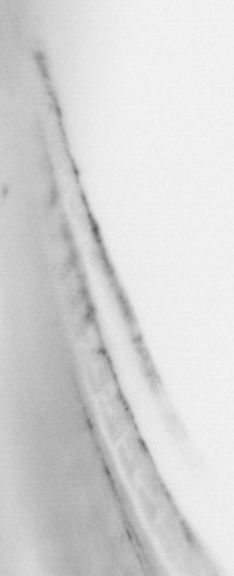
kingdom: Animalia
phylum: Chordata
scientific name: Chordata
